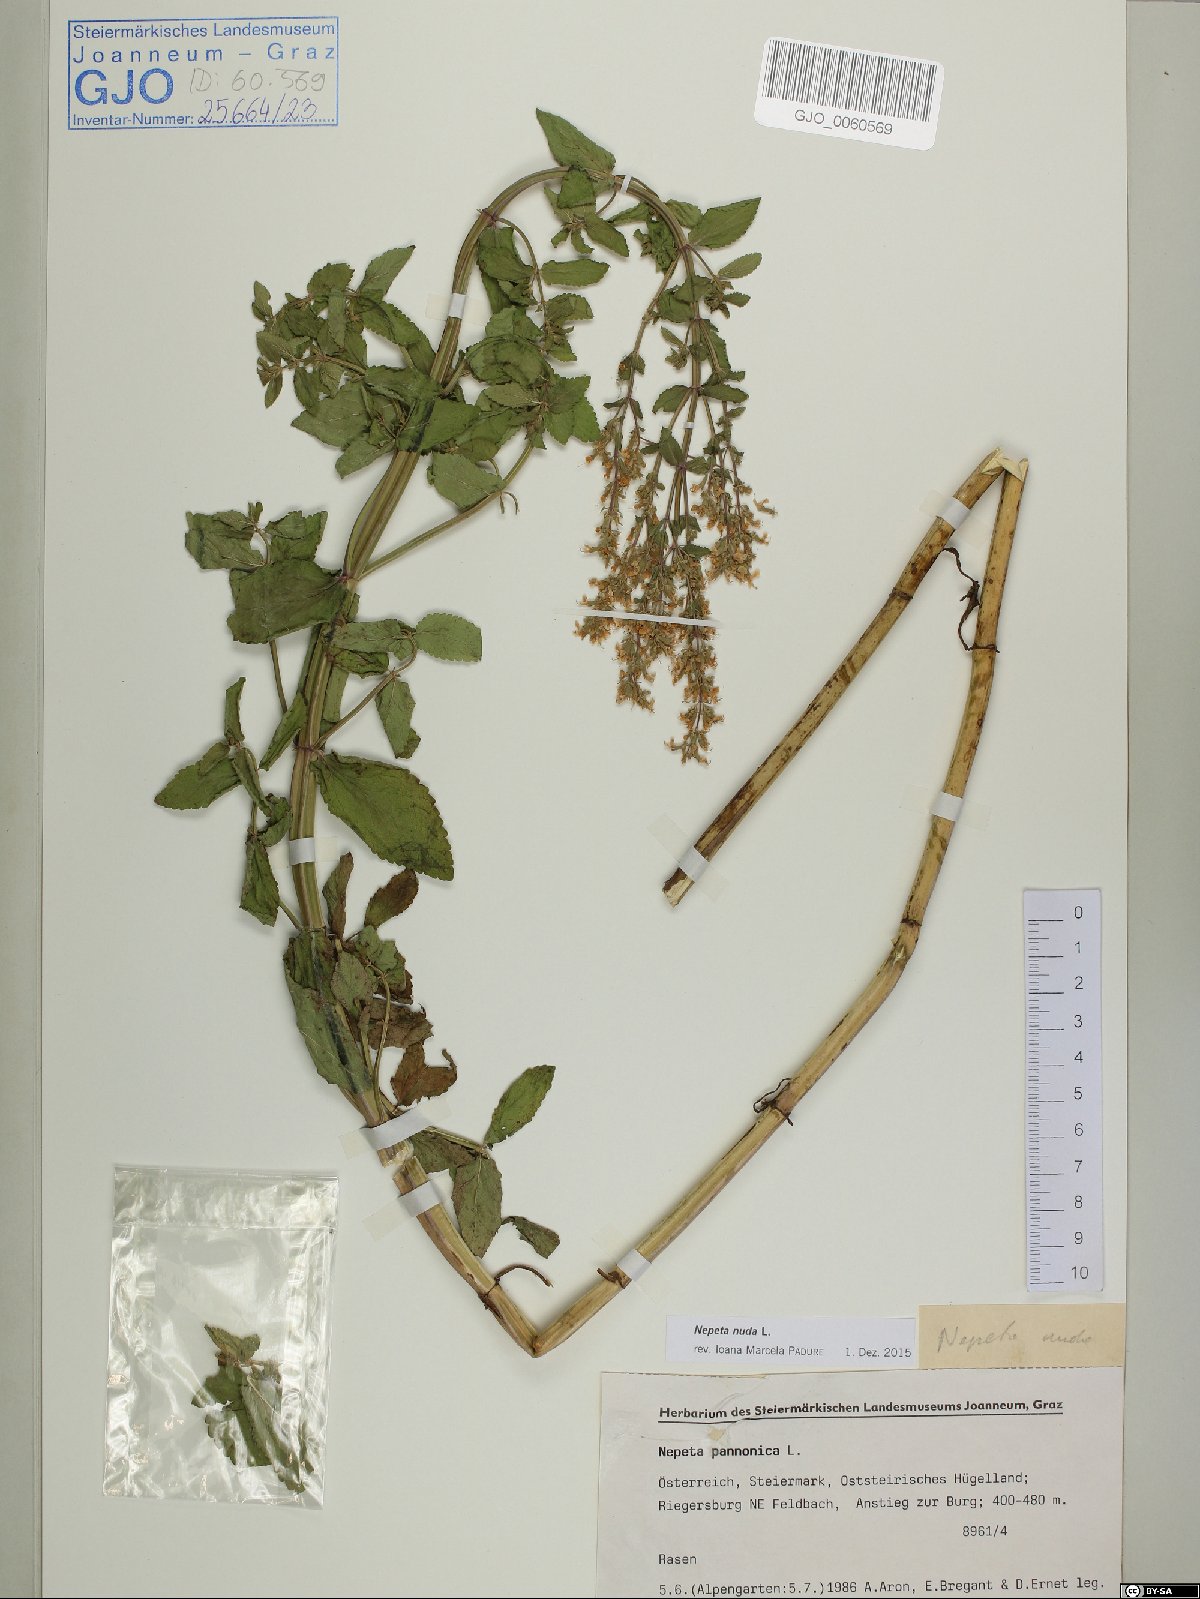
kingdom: Plantae
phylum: Tracheophyta
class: Magnoliopsida
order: Lamiales
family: Lamiaceae
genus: Nepeta
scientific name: Nepeta nuda
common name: Hairless catmint
